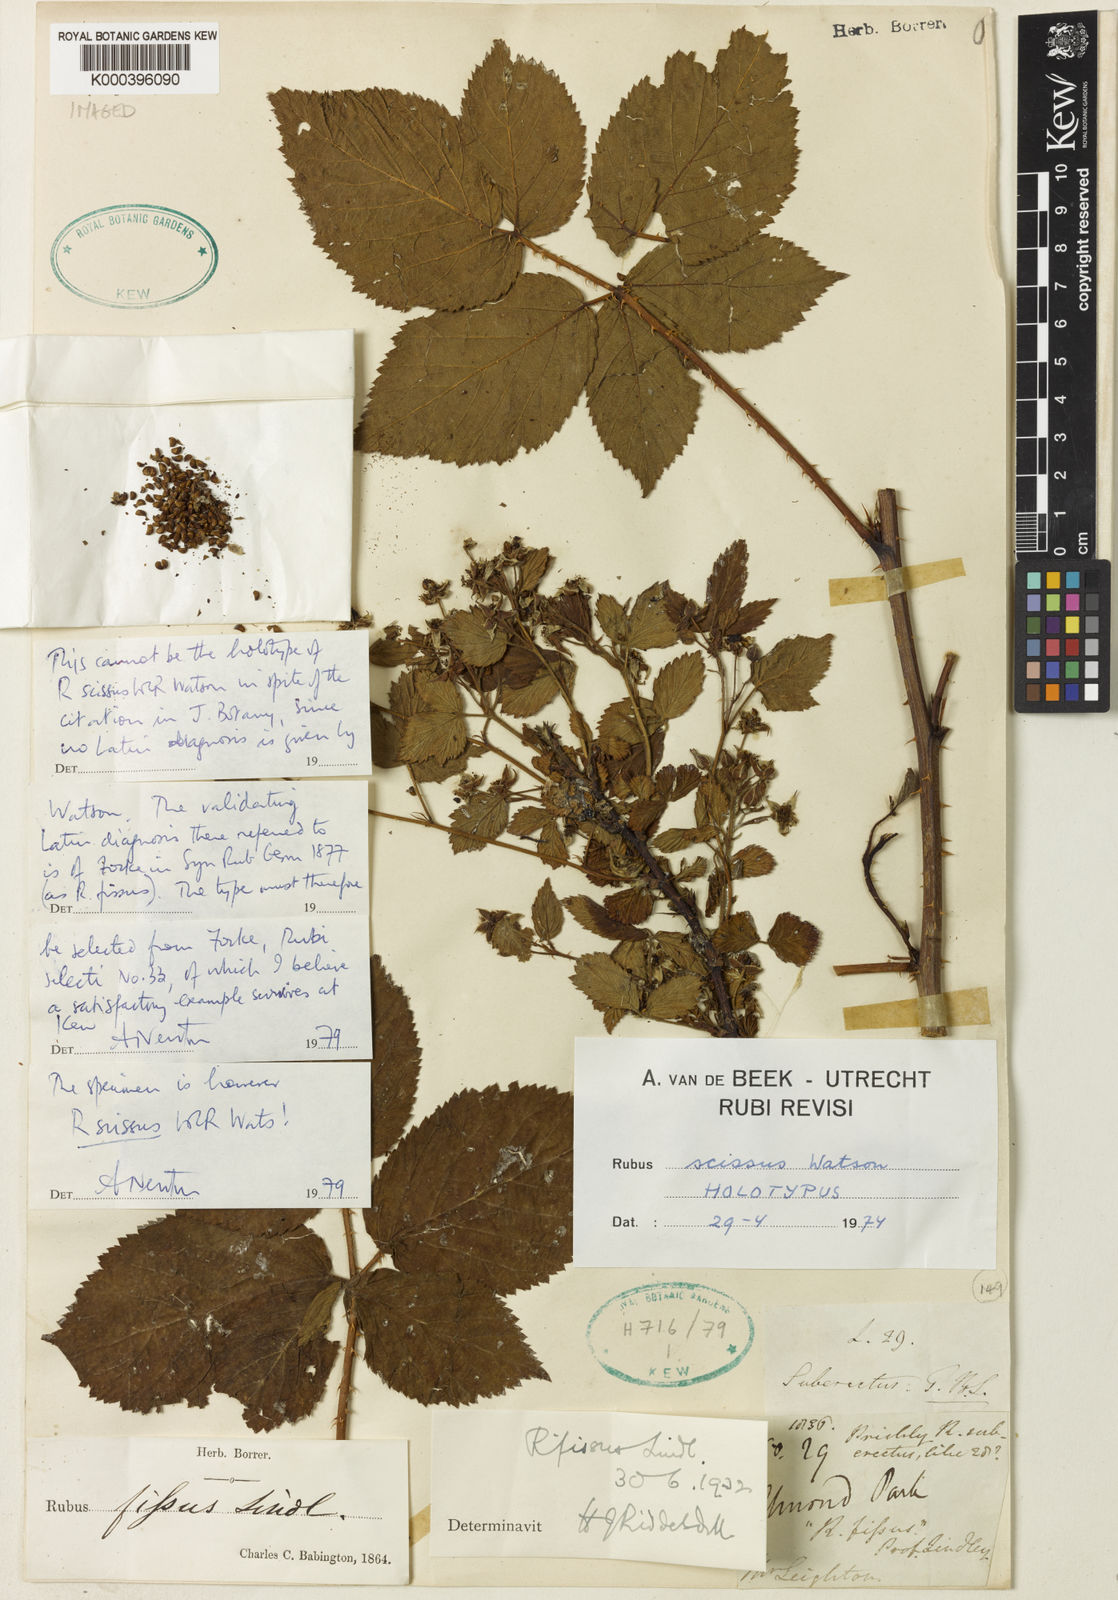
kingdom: Plantae
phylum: Tracheophyta
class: Magnoliopsida
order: Rosales
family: Rosaceae
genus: Rubus
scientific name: Rubus scissus
